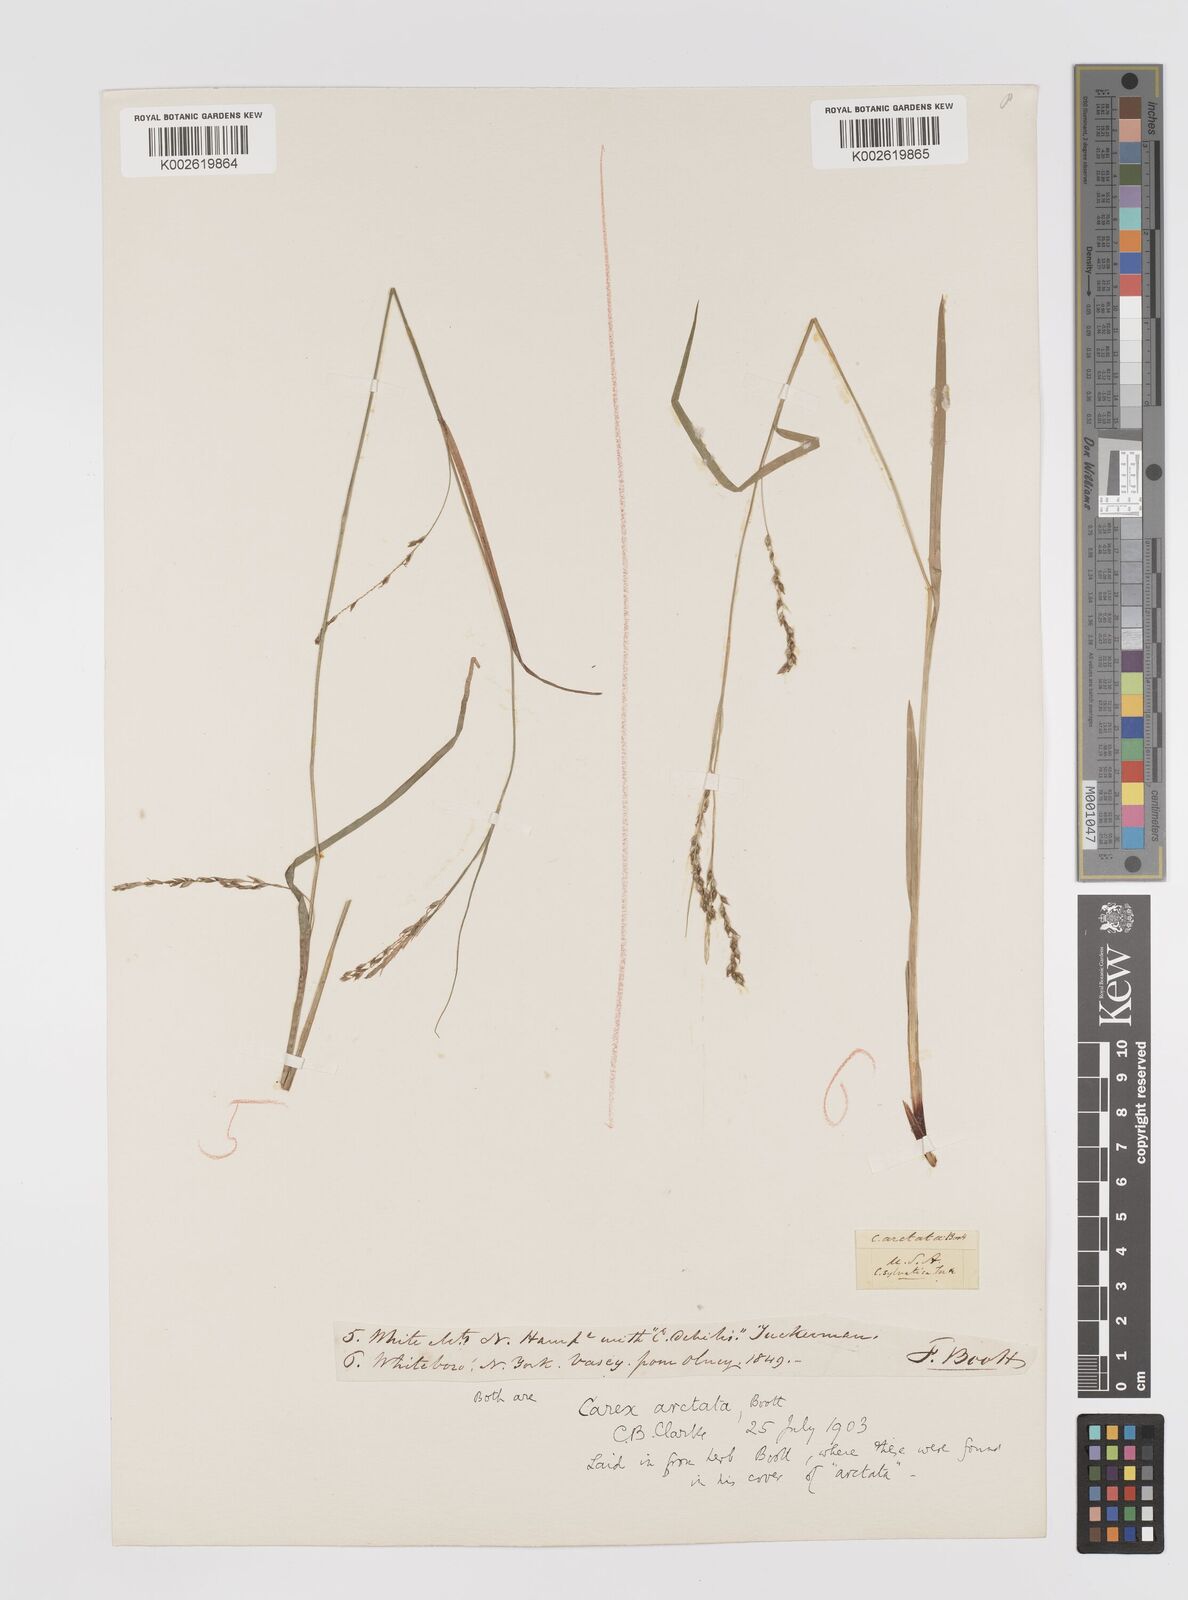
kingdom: Plantae
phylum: Tracheophyta
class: Liliopsida
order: Poales
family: Cyperaceae
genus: Carex
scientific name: Carex arctata
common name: Black sedge
